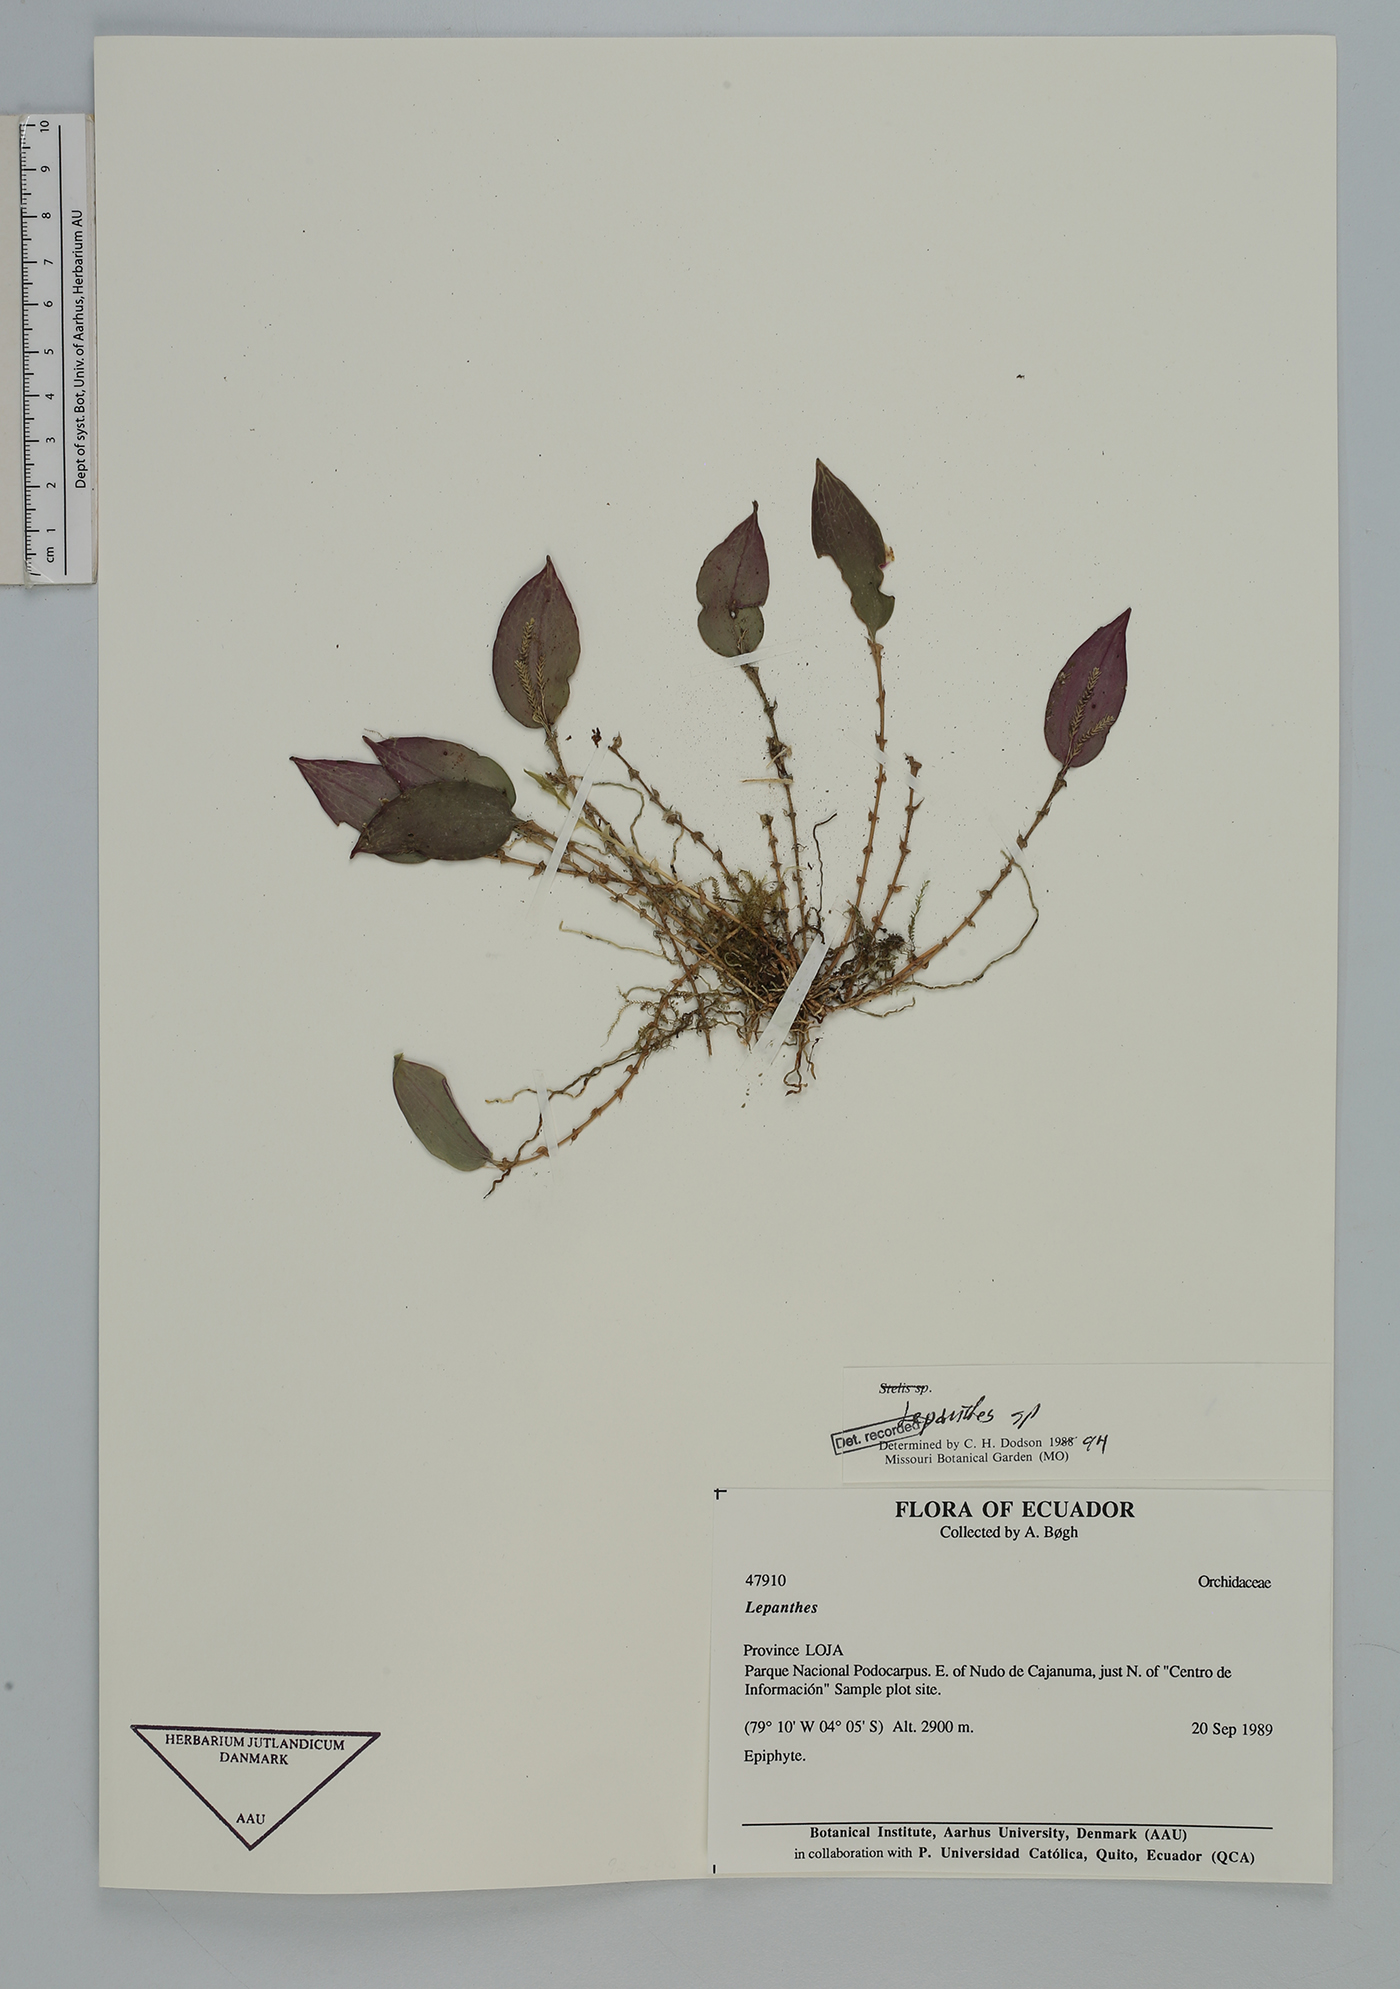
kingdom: Plantae
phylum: Tracheophyta
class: Liliopsida
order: Asparagales
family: Orchidaceae
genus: Lepanthes
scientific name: Lepanthes
